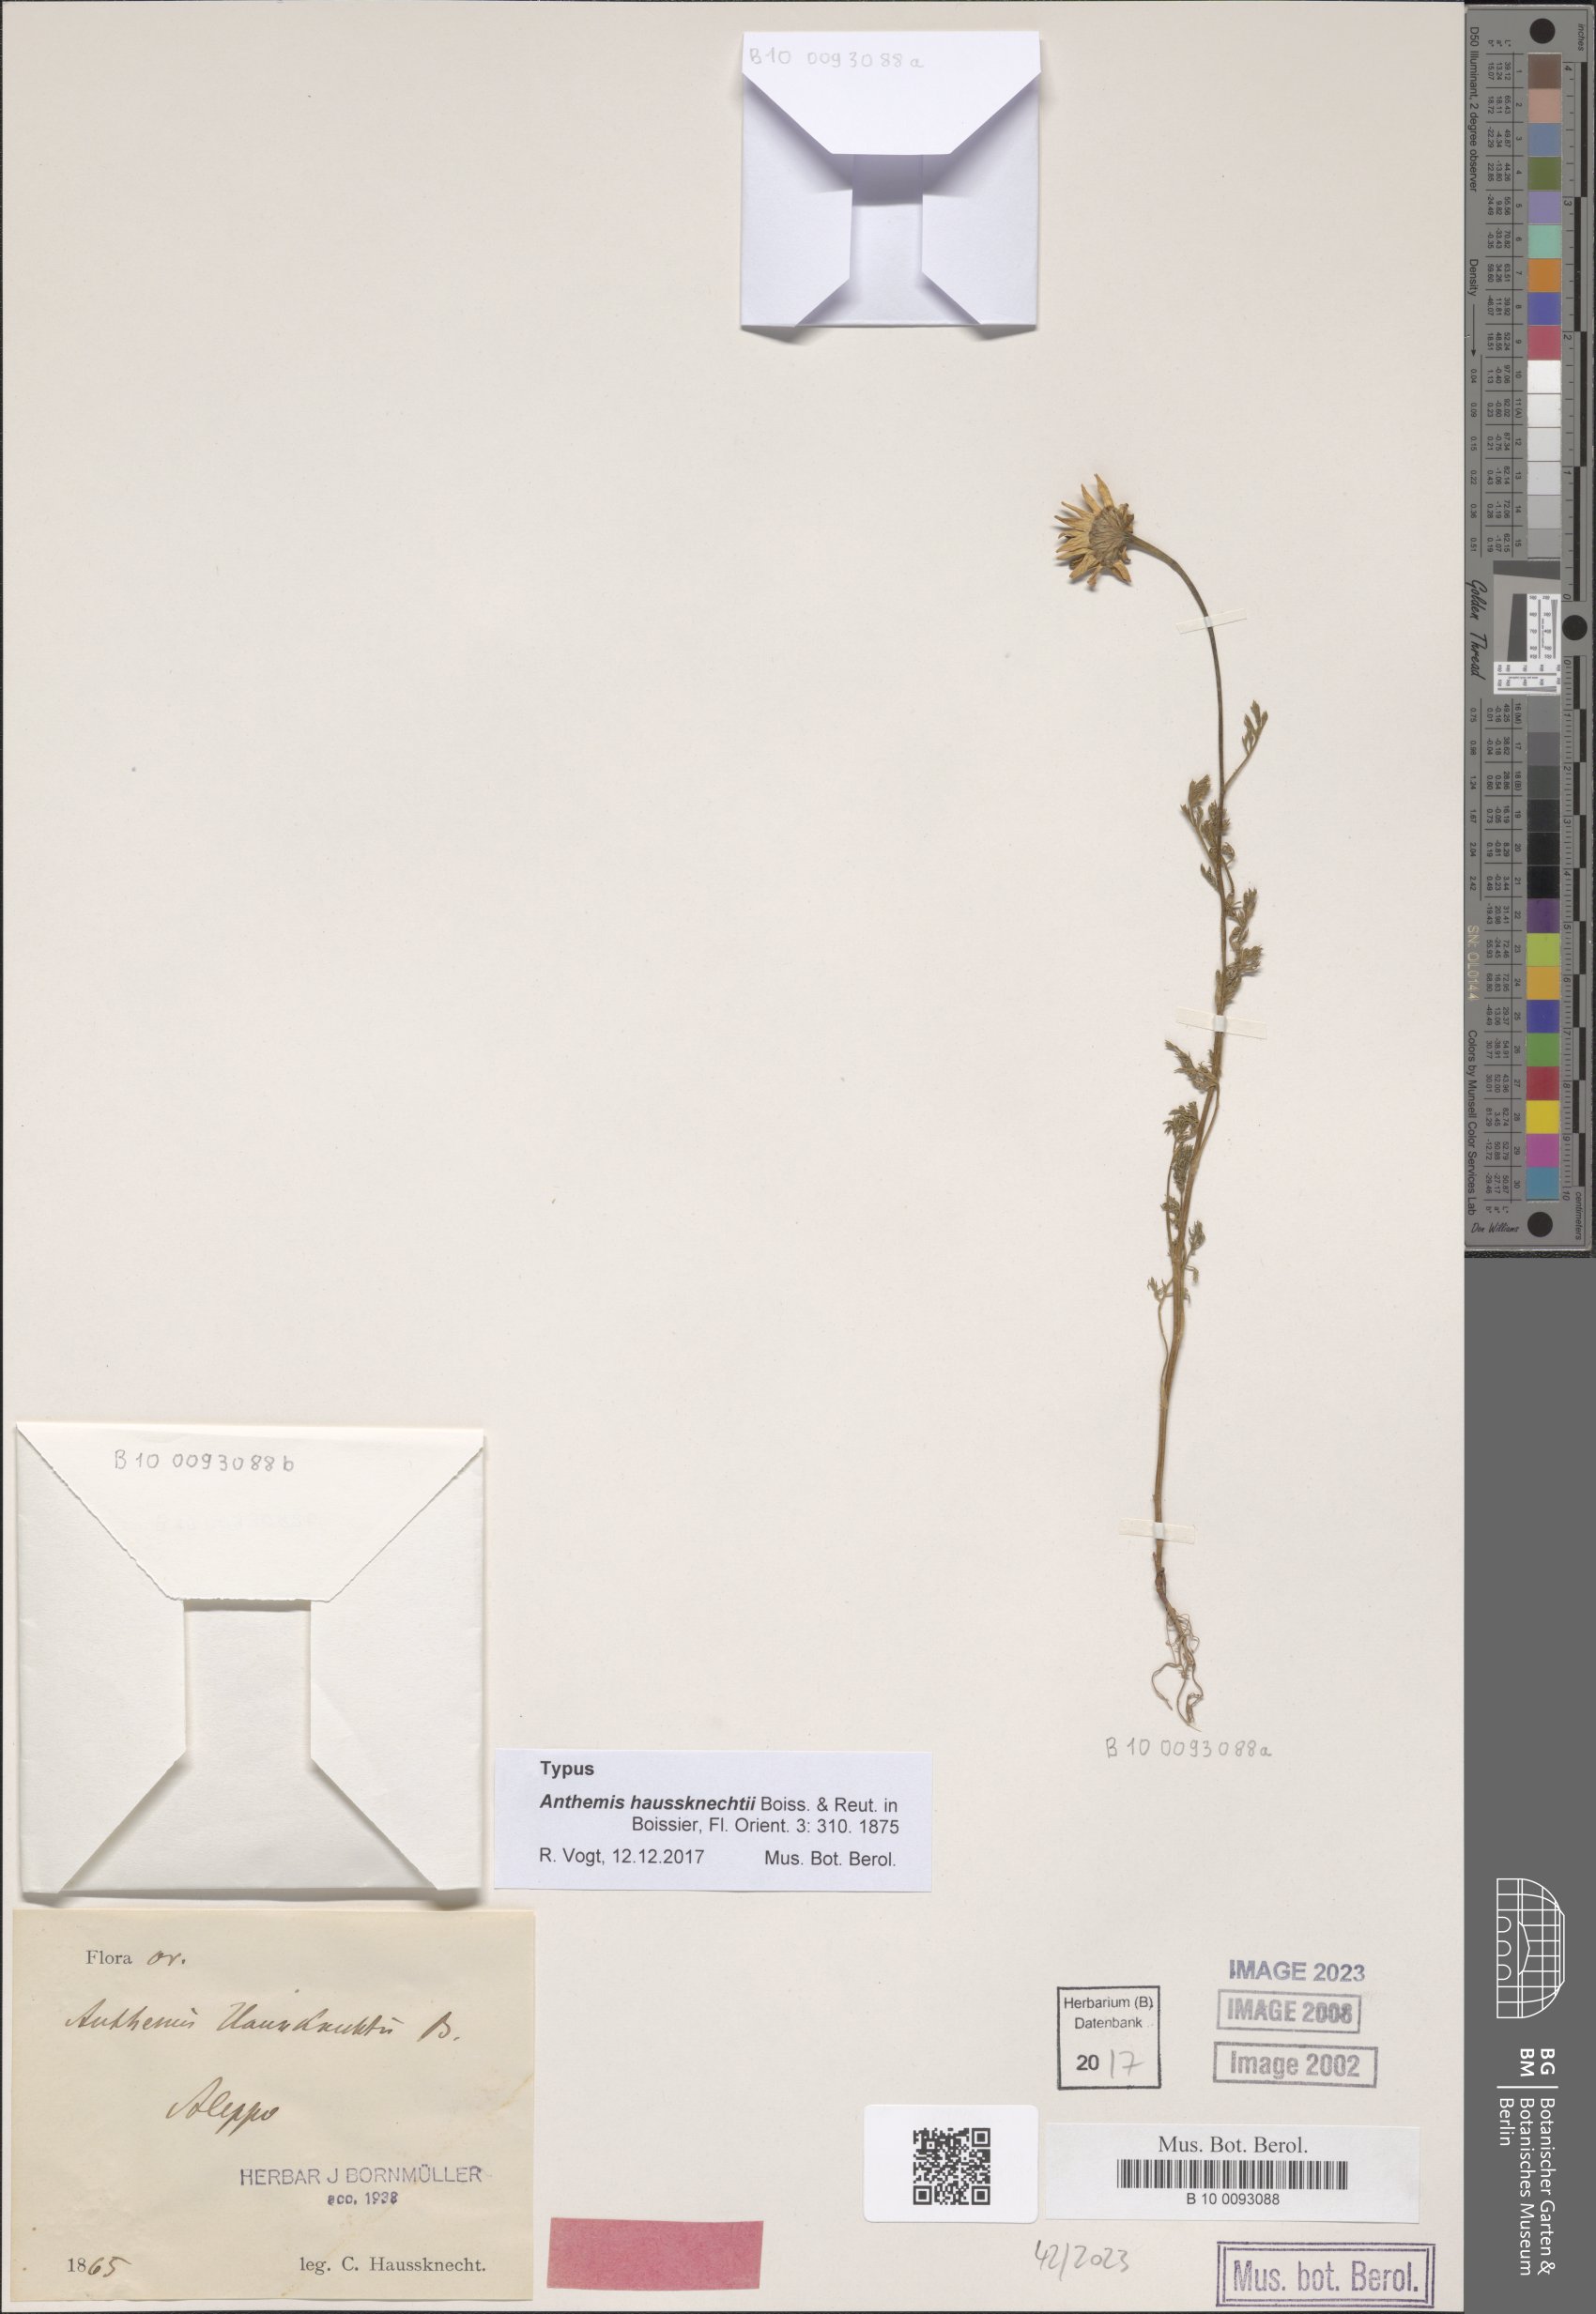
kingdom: Plantae
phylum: Tracheophyta
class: Magnoliopsida
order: Asterales
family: Asteraceae
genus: Anthemis
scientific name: Anthemis haussknechtii
